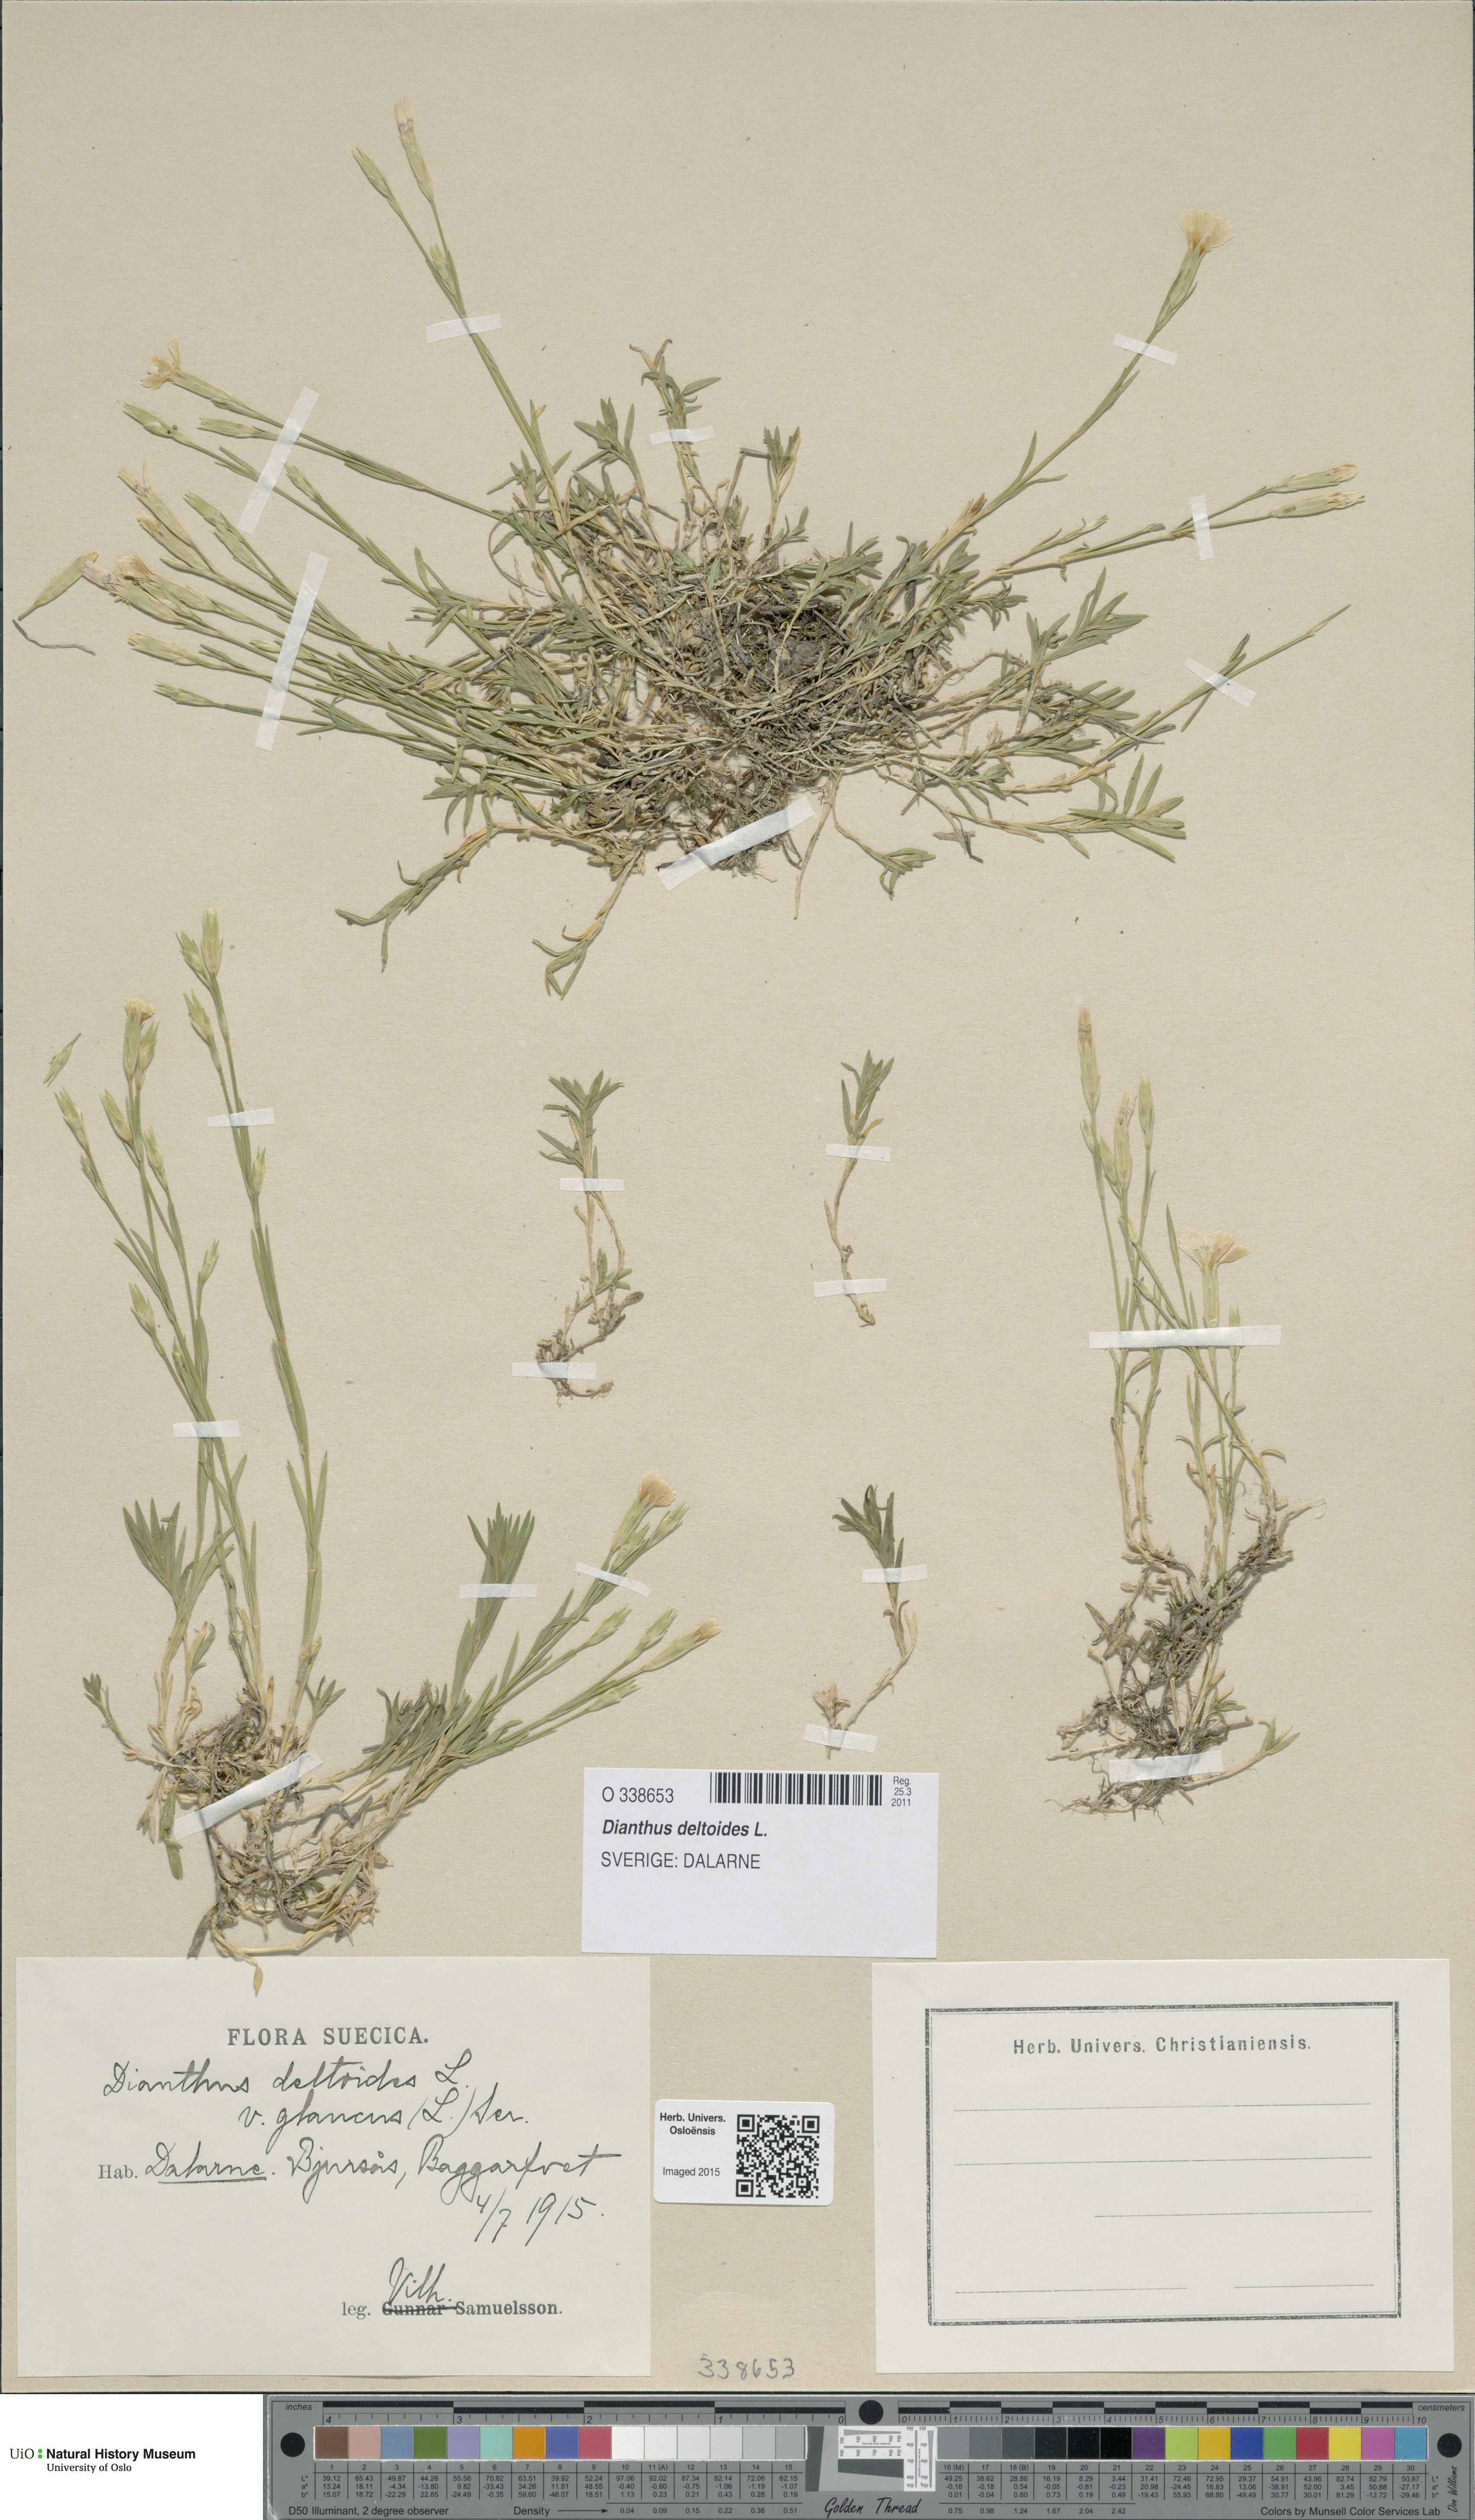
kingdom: Plantae
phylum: Tracheophyta
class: Magnoliopsida
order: Caryophyllales
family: Caryophyllaceae
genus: Dianthus
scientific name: Dianthus deltoides
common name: Maiden pink
